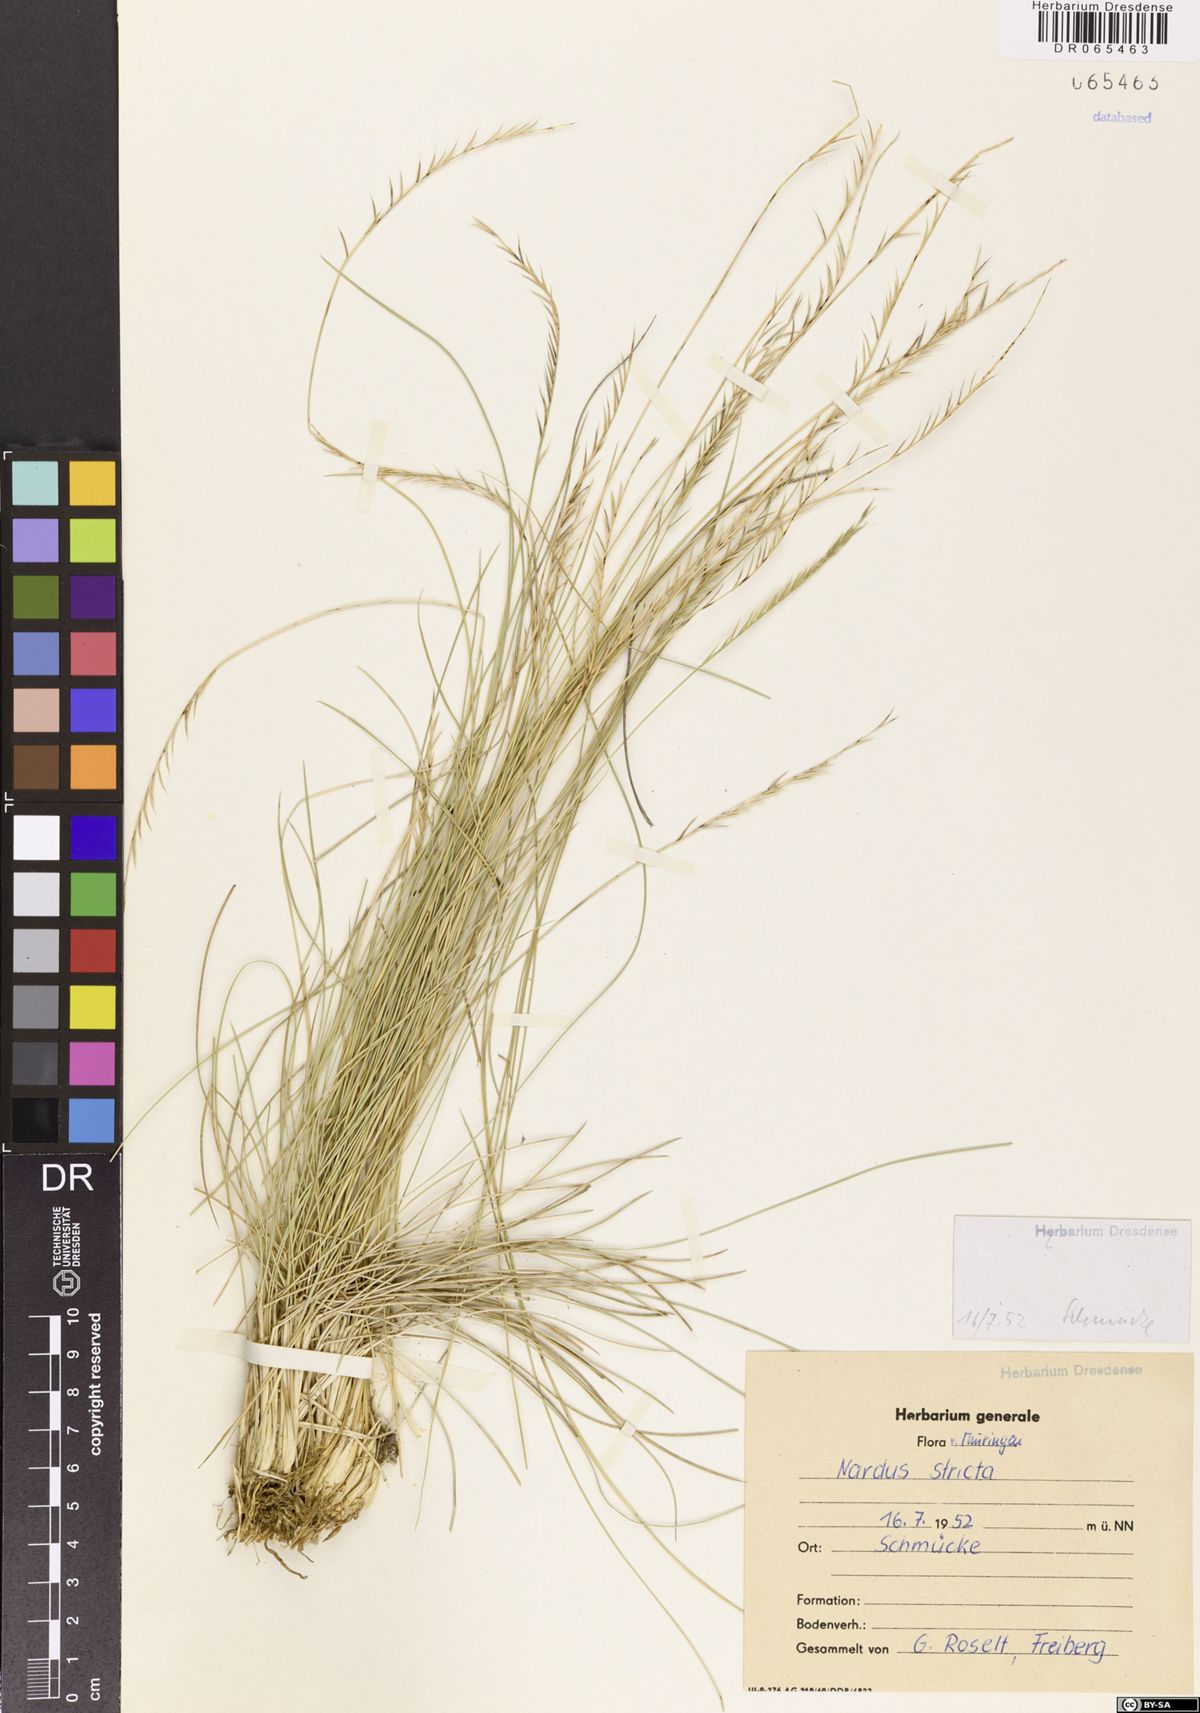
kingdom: Plantae
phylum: Tracheophyta
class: Liliopsida
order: Poales
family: Poaceae
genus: Nardus
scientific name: Nardus stricta
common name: Mat-grass
